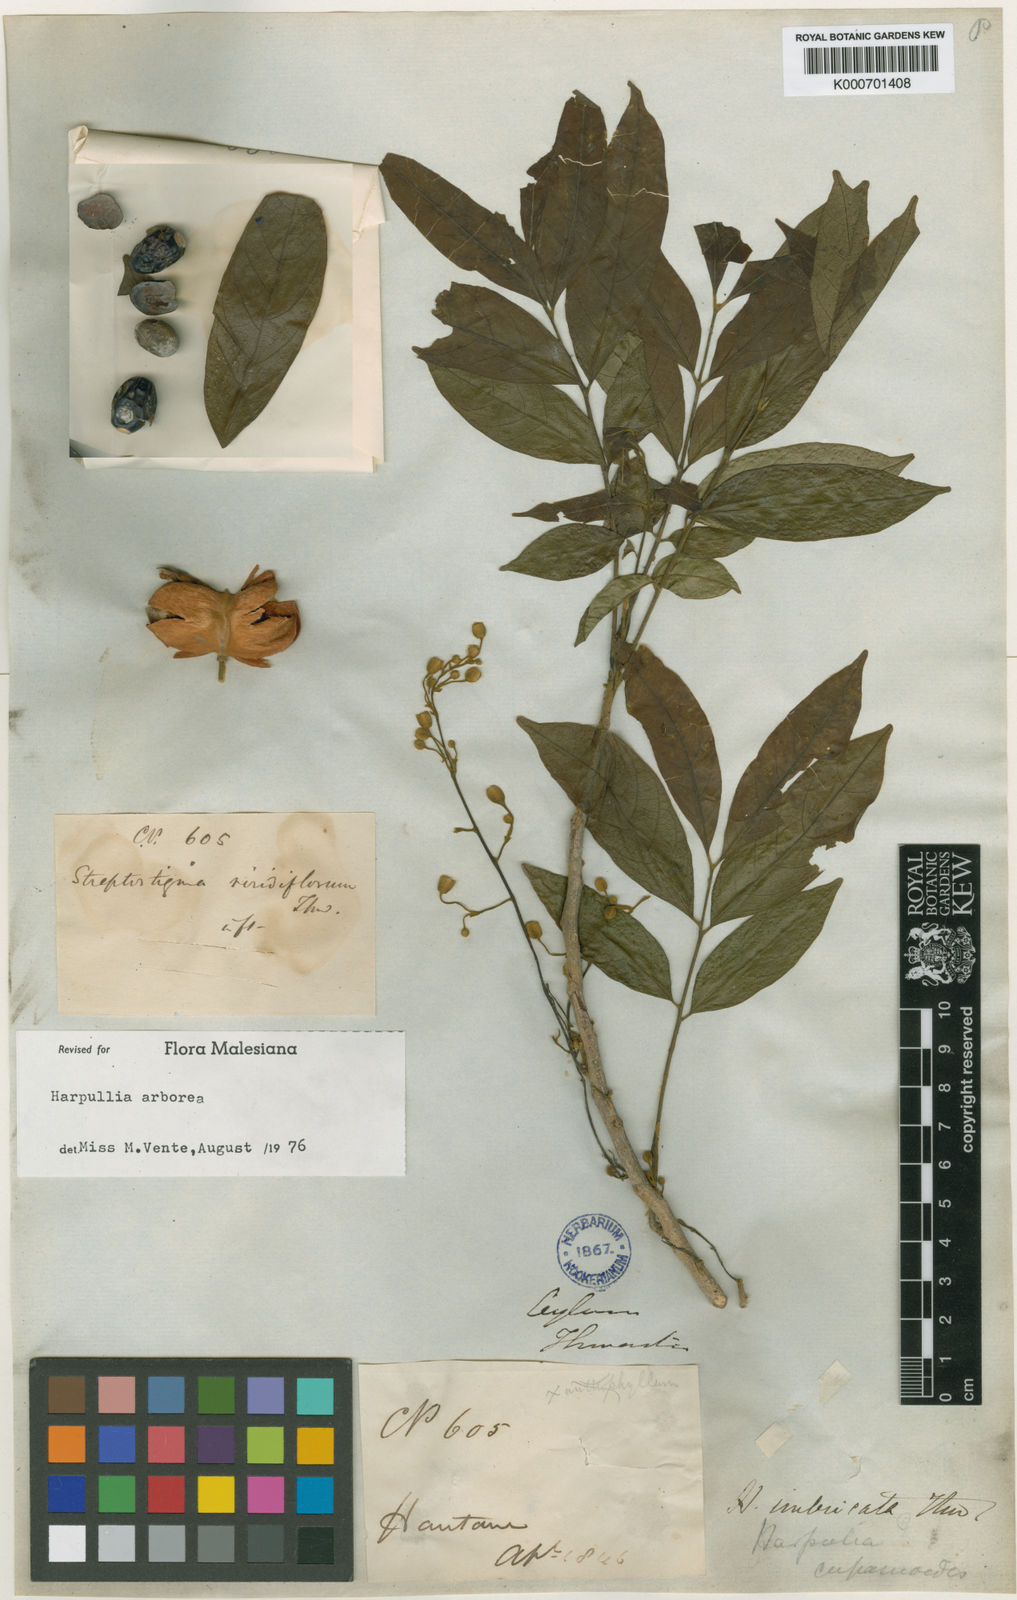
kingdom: Plantae
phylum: Tracheophyta
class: Magnoliopsida
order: Sapindales
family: Sapindaceae
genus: Harpullia
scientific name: Harpullia arborea
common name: Tulip-wood tree
